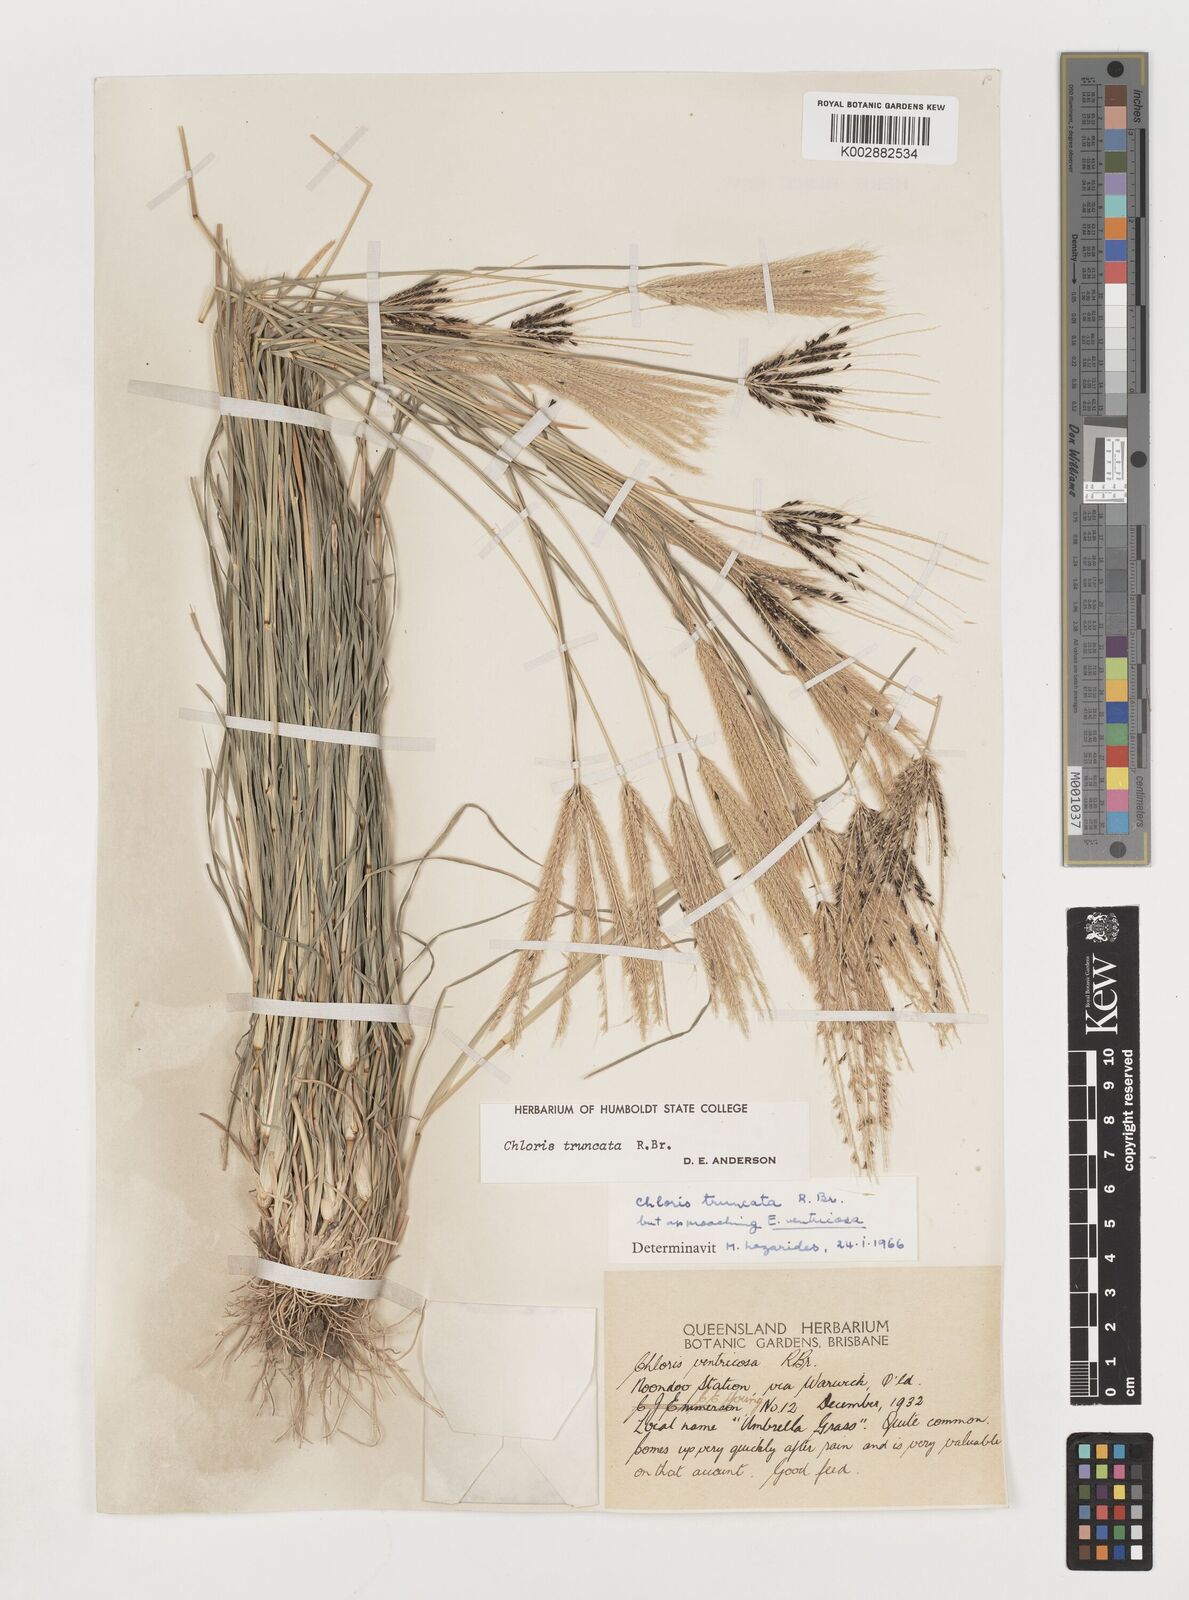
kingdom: Plantae
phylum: Tracheophyta
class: Liliopsida
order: Poales
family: Poaceae
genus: Chloris
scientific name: Chloris truncata
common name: Windmill-grass
